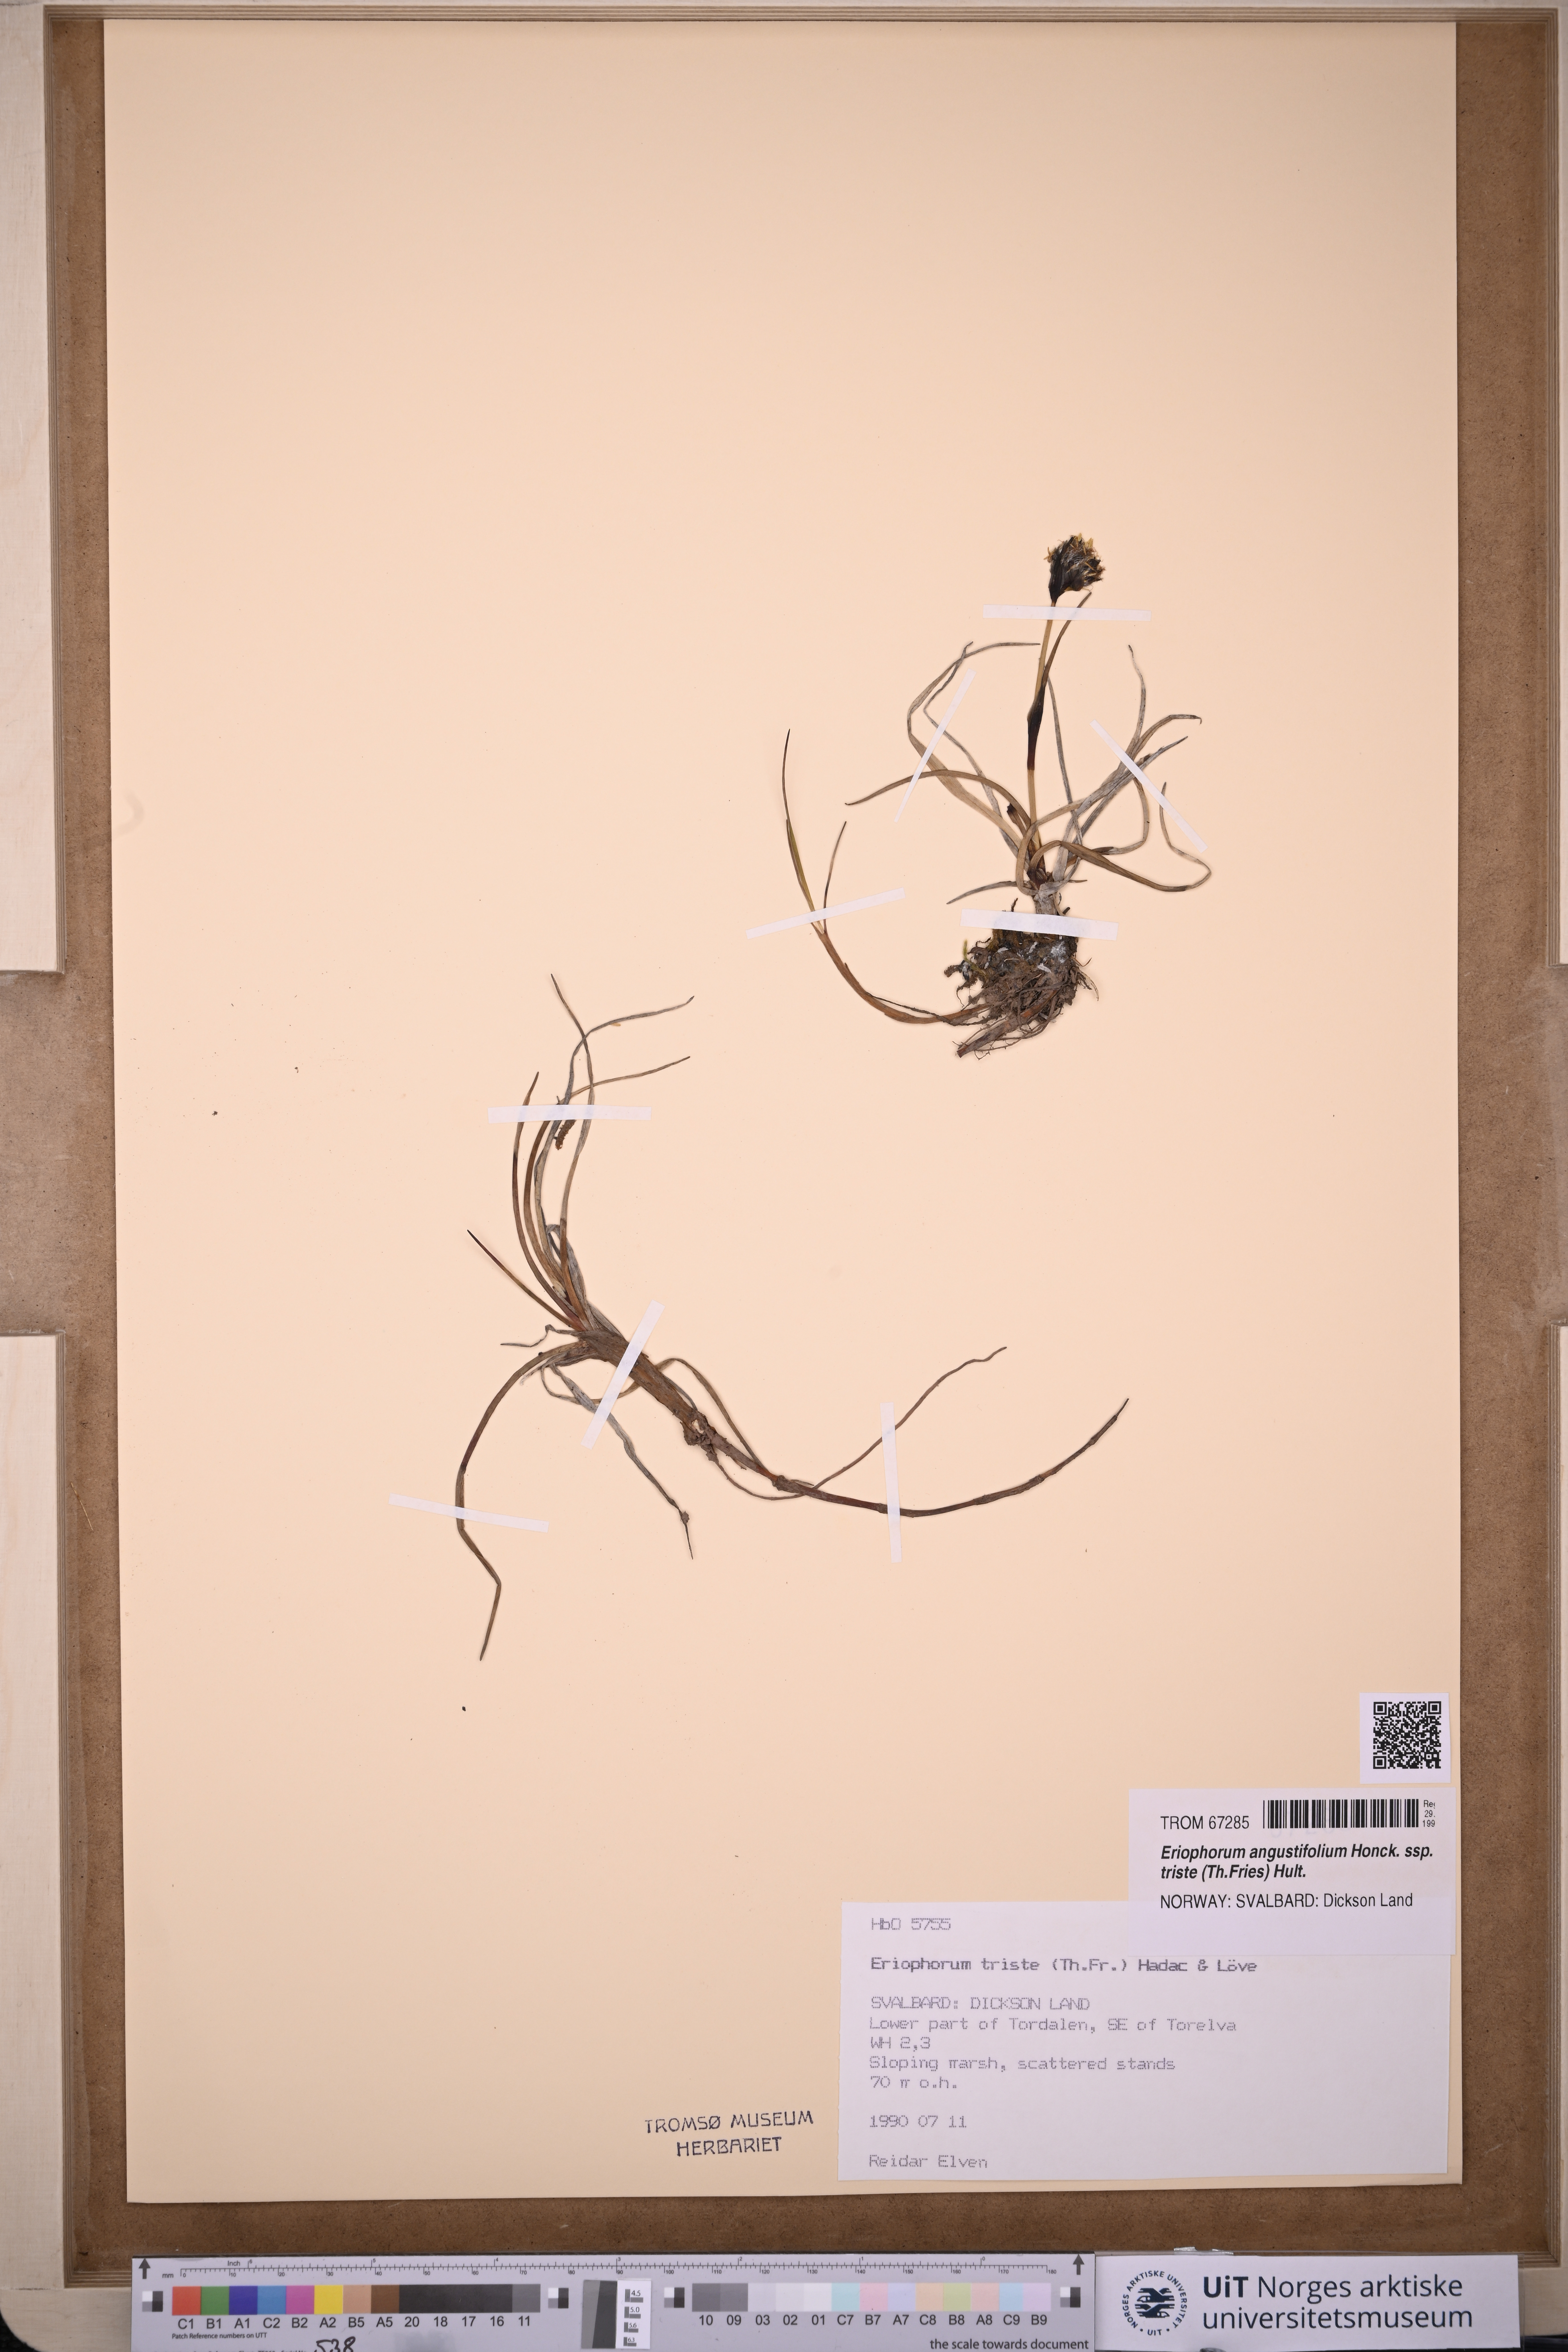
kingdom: Plantae
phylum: Tracheophyta
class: Liliopsida
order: Poales
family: Cyperaceae
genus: Eriophorum
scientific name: Eriophorum triste
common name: Tall cottongrass
